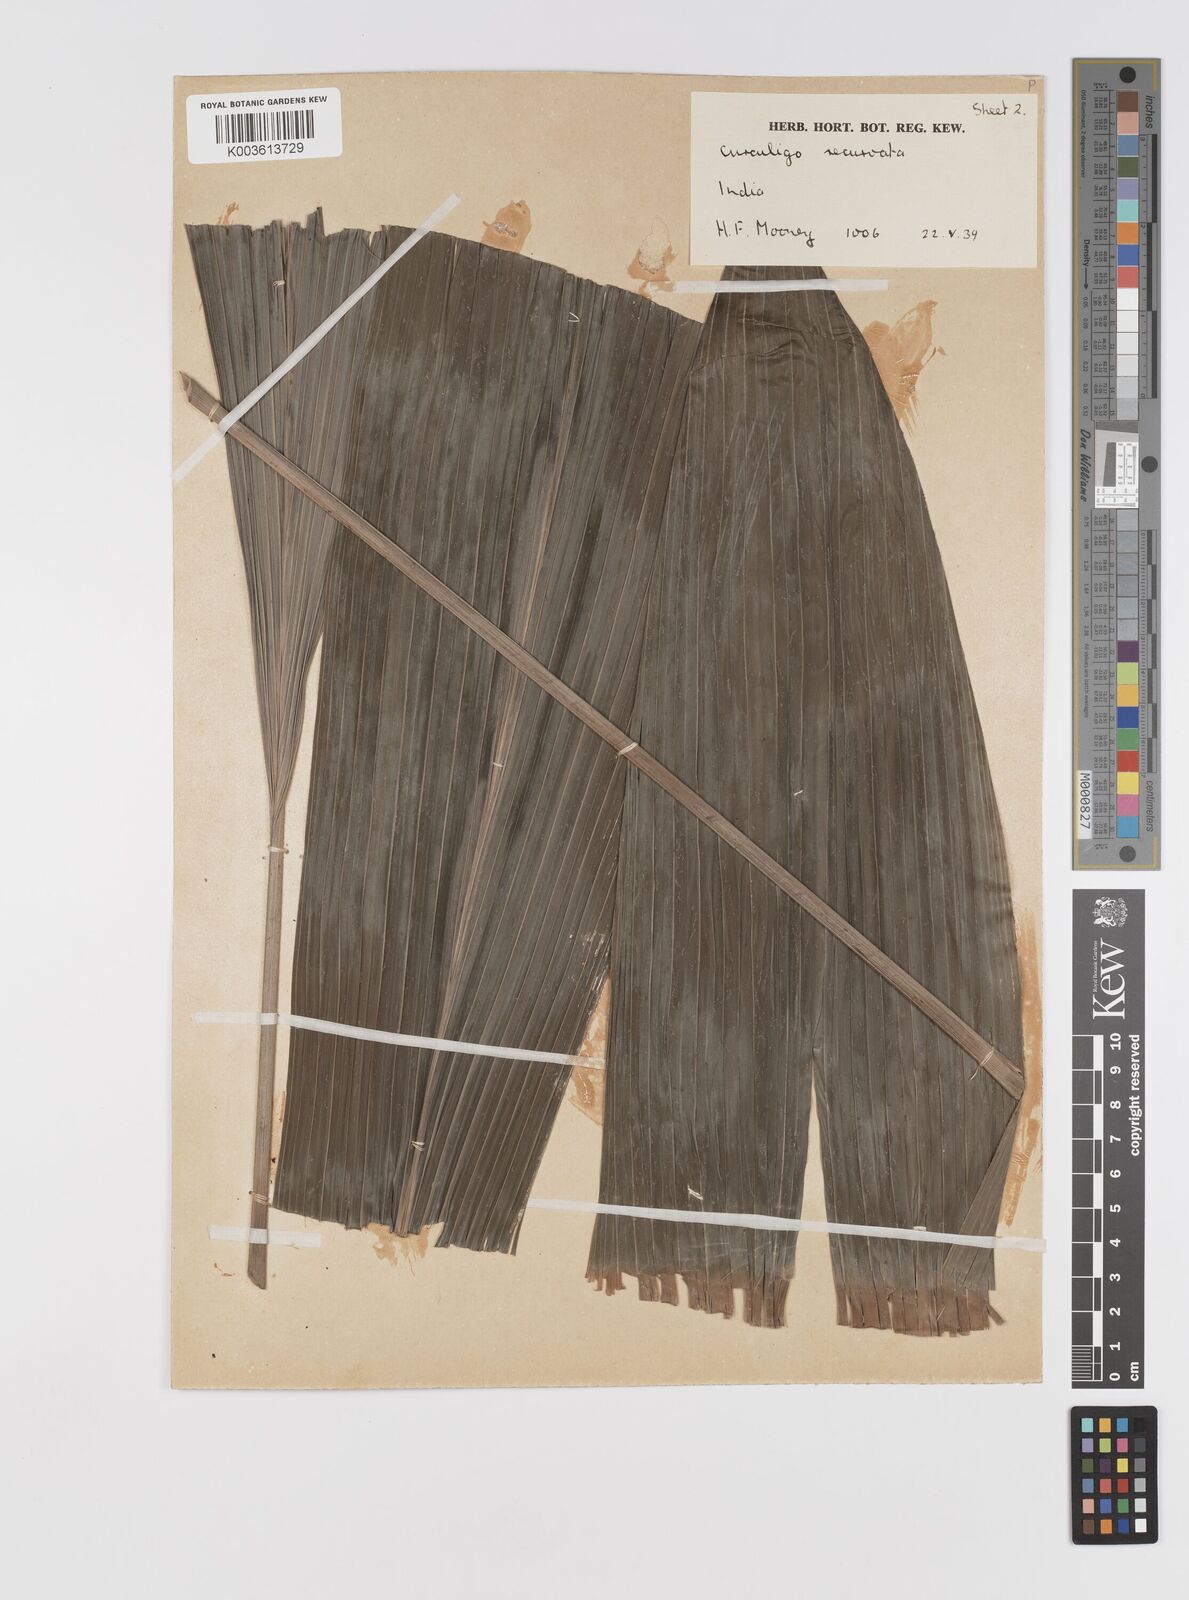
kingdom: Plantae
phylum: Tracheophyta
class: Liliopsida
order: Asparagales
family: Hypoxidaceae
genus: Curculigo
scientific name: Curculigo capitulata
